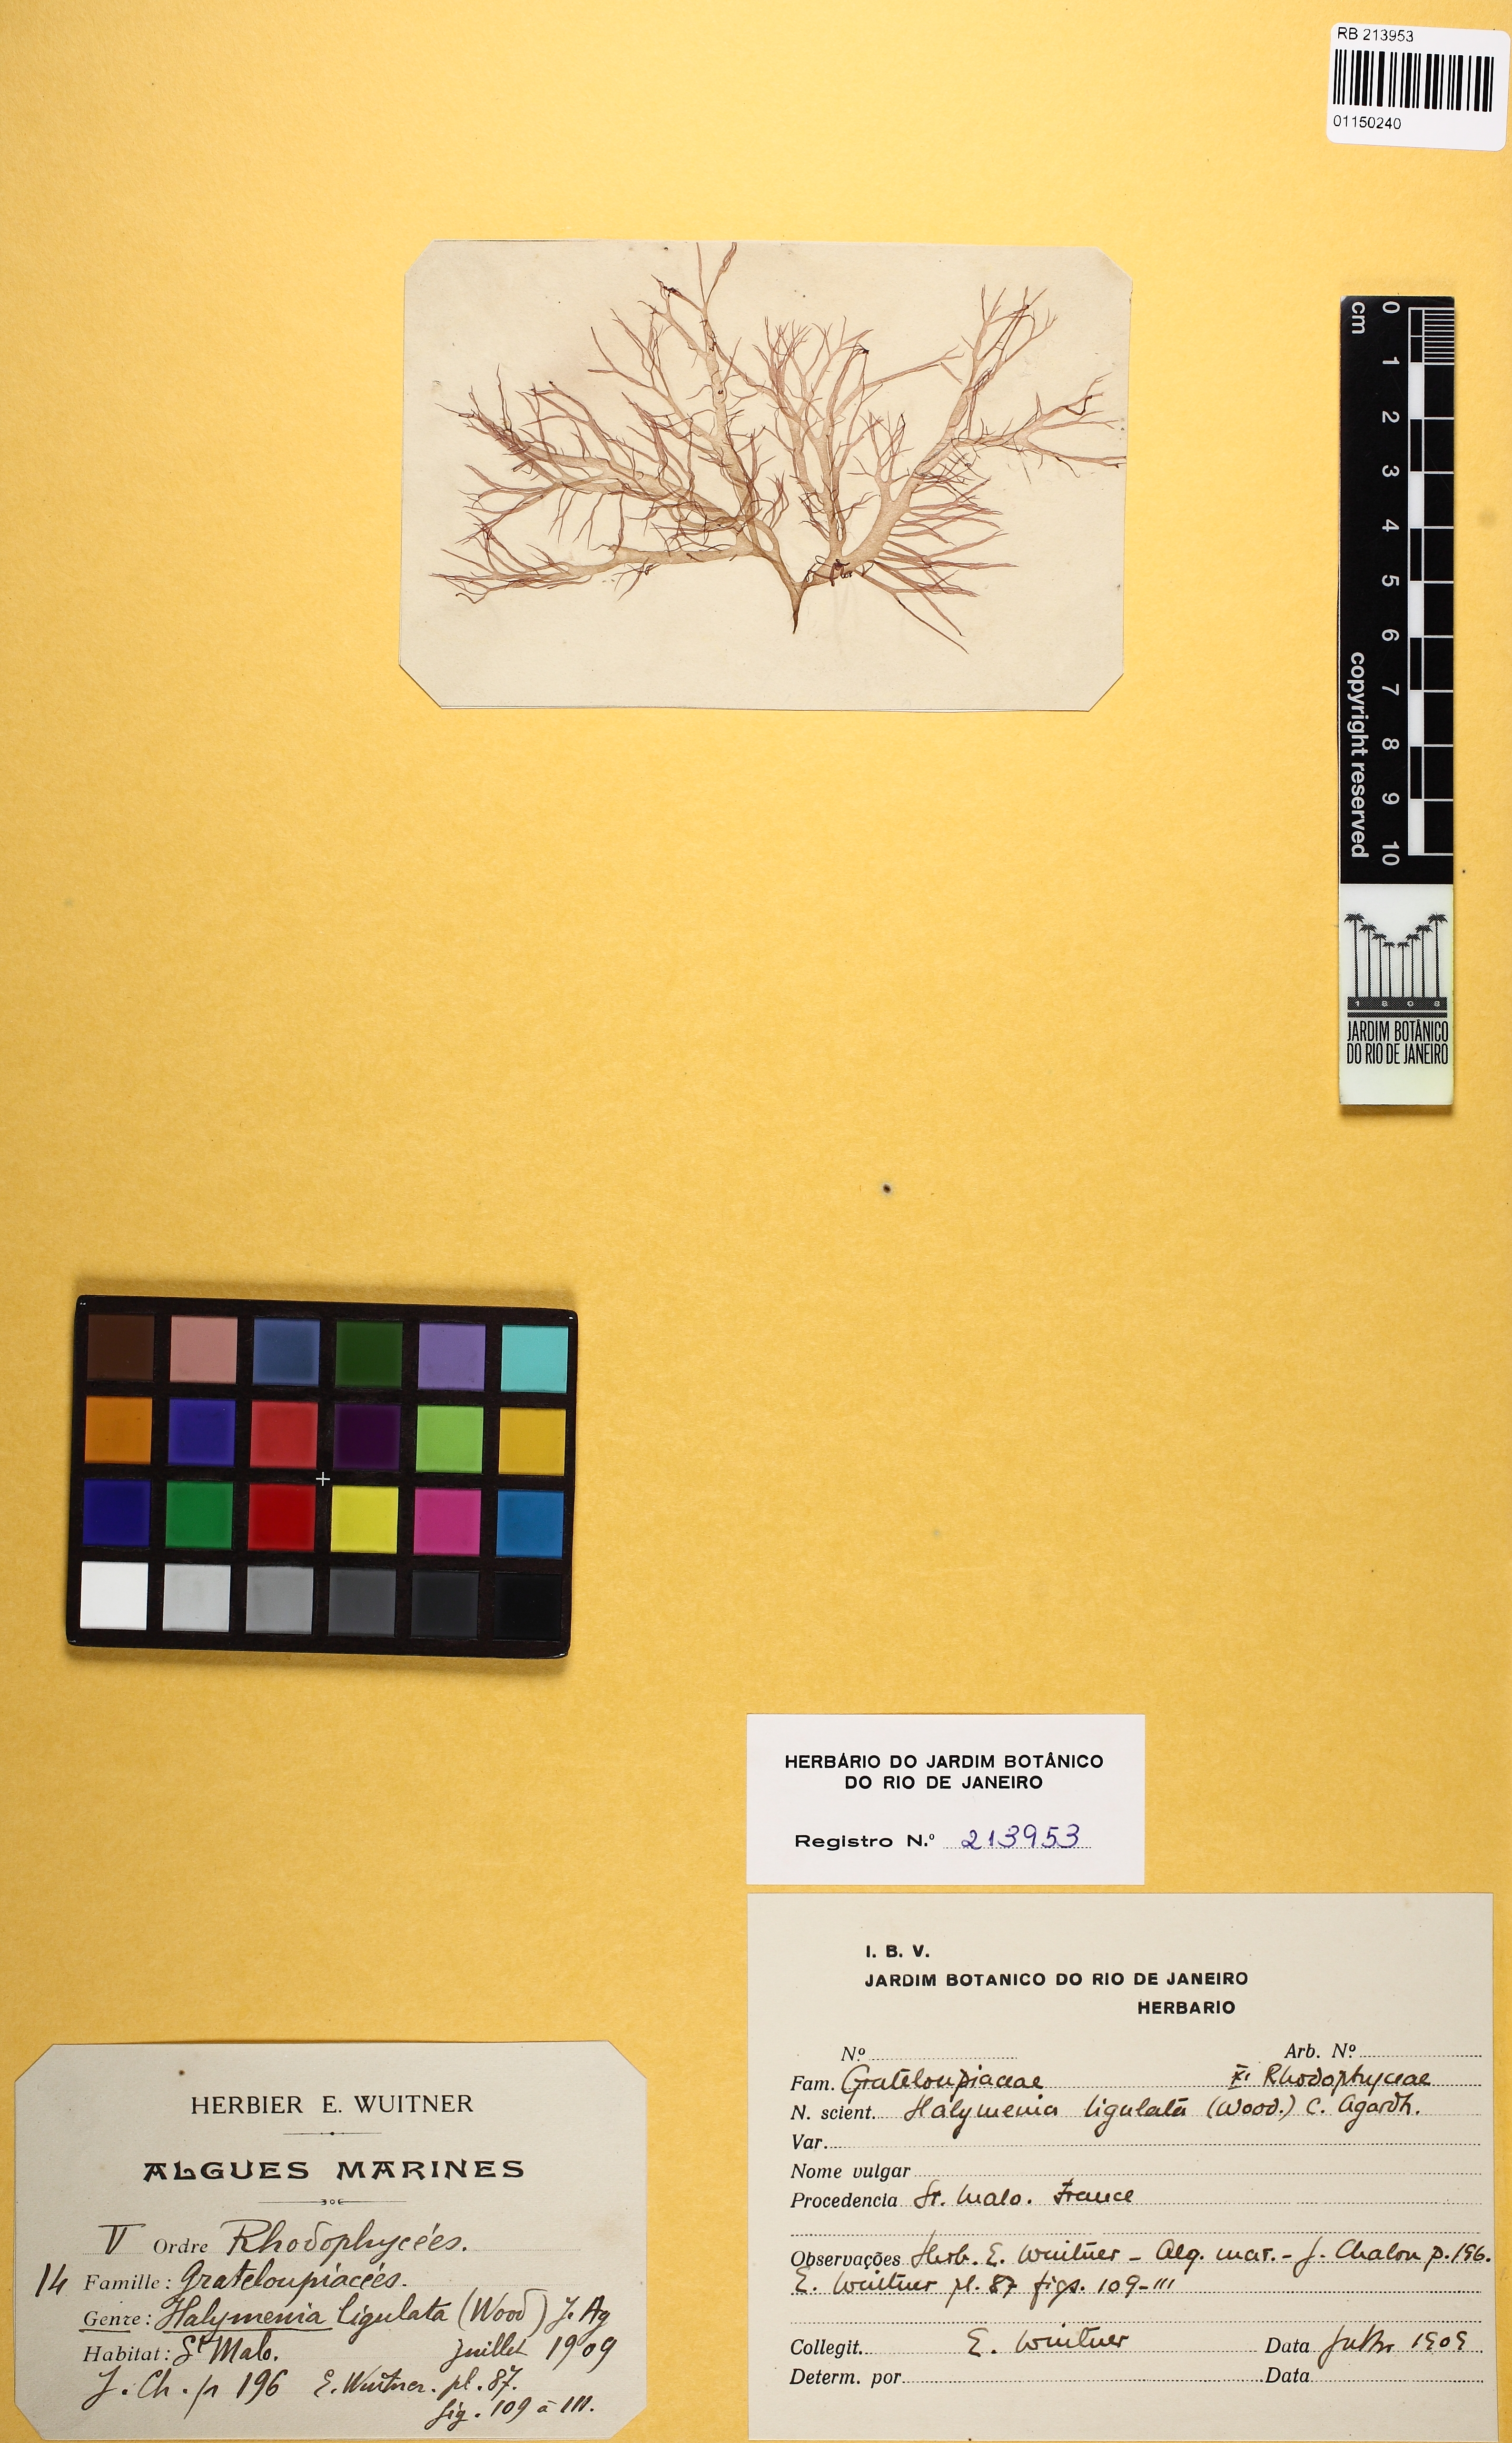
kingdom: Plantae
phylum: Rhodophyta
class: Florideophyceae
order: Gigartinales
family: Furcellariaceae
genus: Halarachnion
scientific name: Halarachnion ligulatum
